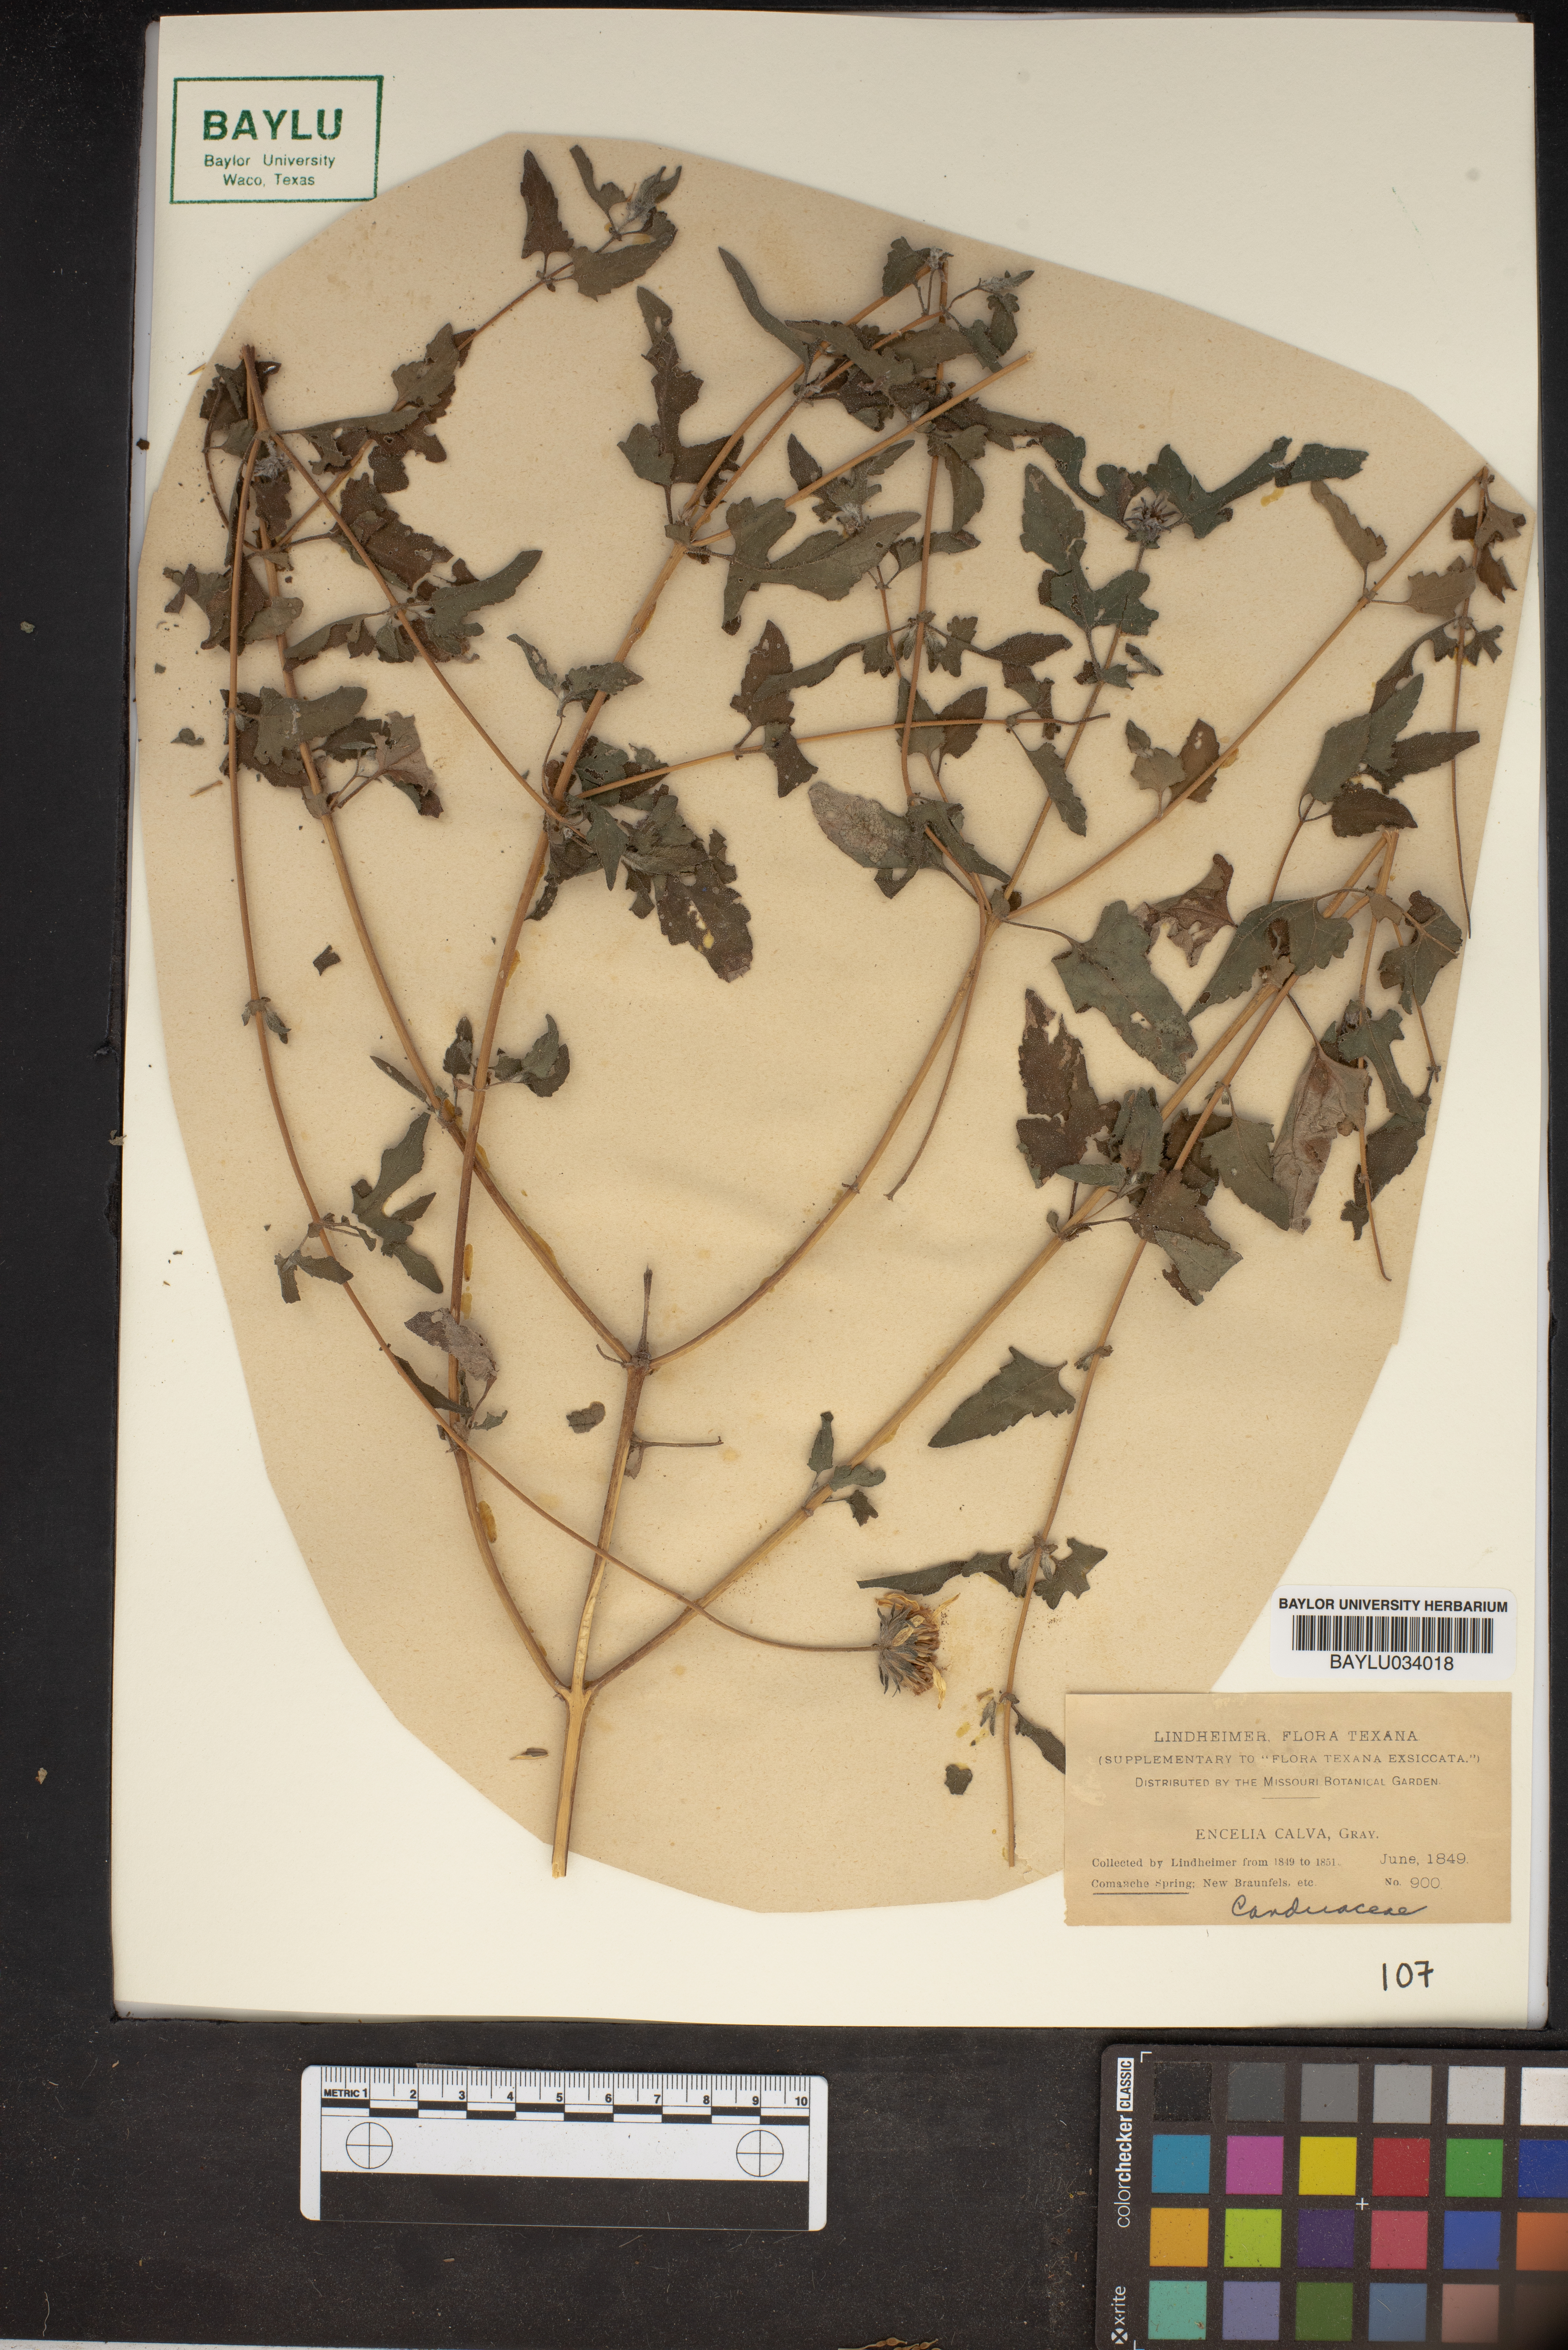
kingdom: Plantae
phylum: Tracheophyta
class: Magnoliopsida
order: Asterales
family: Asteraceae
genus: Simsia
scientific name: Simsia calva
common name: Awnless bush-sunflower
